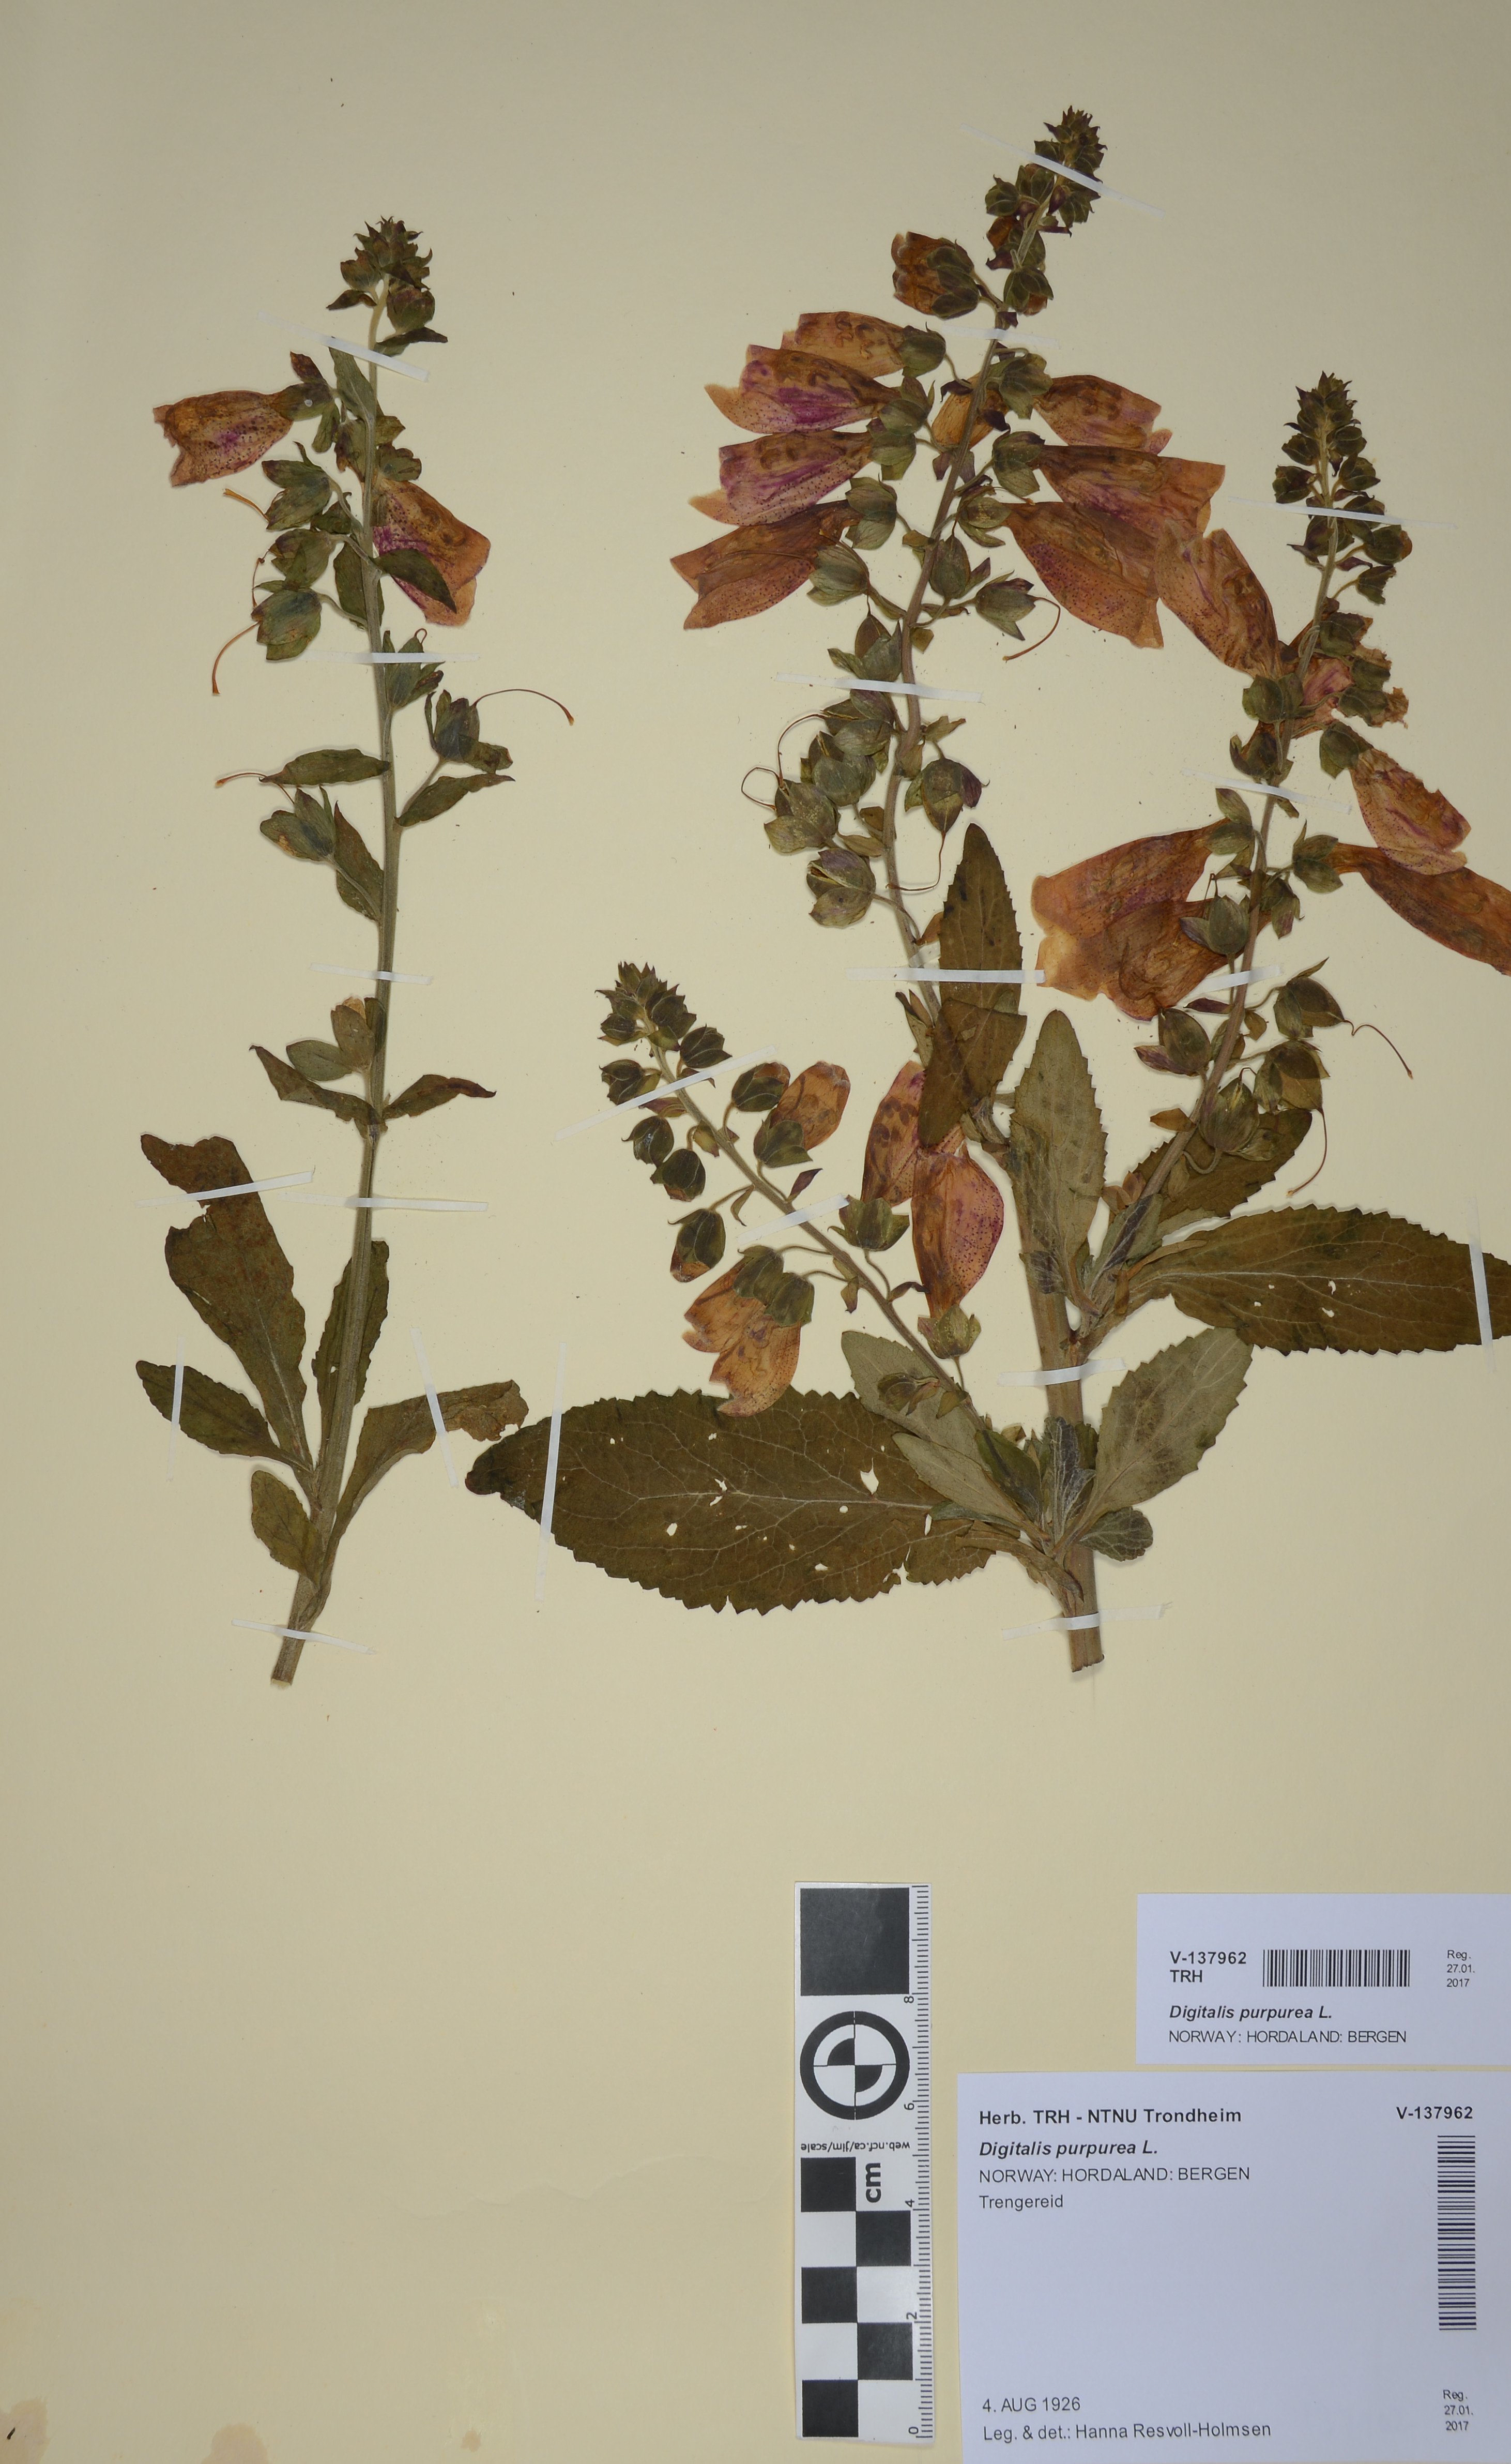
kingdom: Plantae
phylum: Tracheophyta
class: Magnoliopsida
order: Lamiales
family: Plantaginaceae
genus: Digitalis
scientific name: Digitalis purpurea
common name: Foxglove
